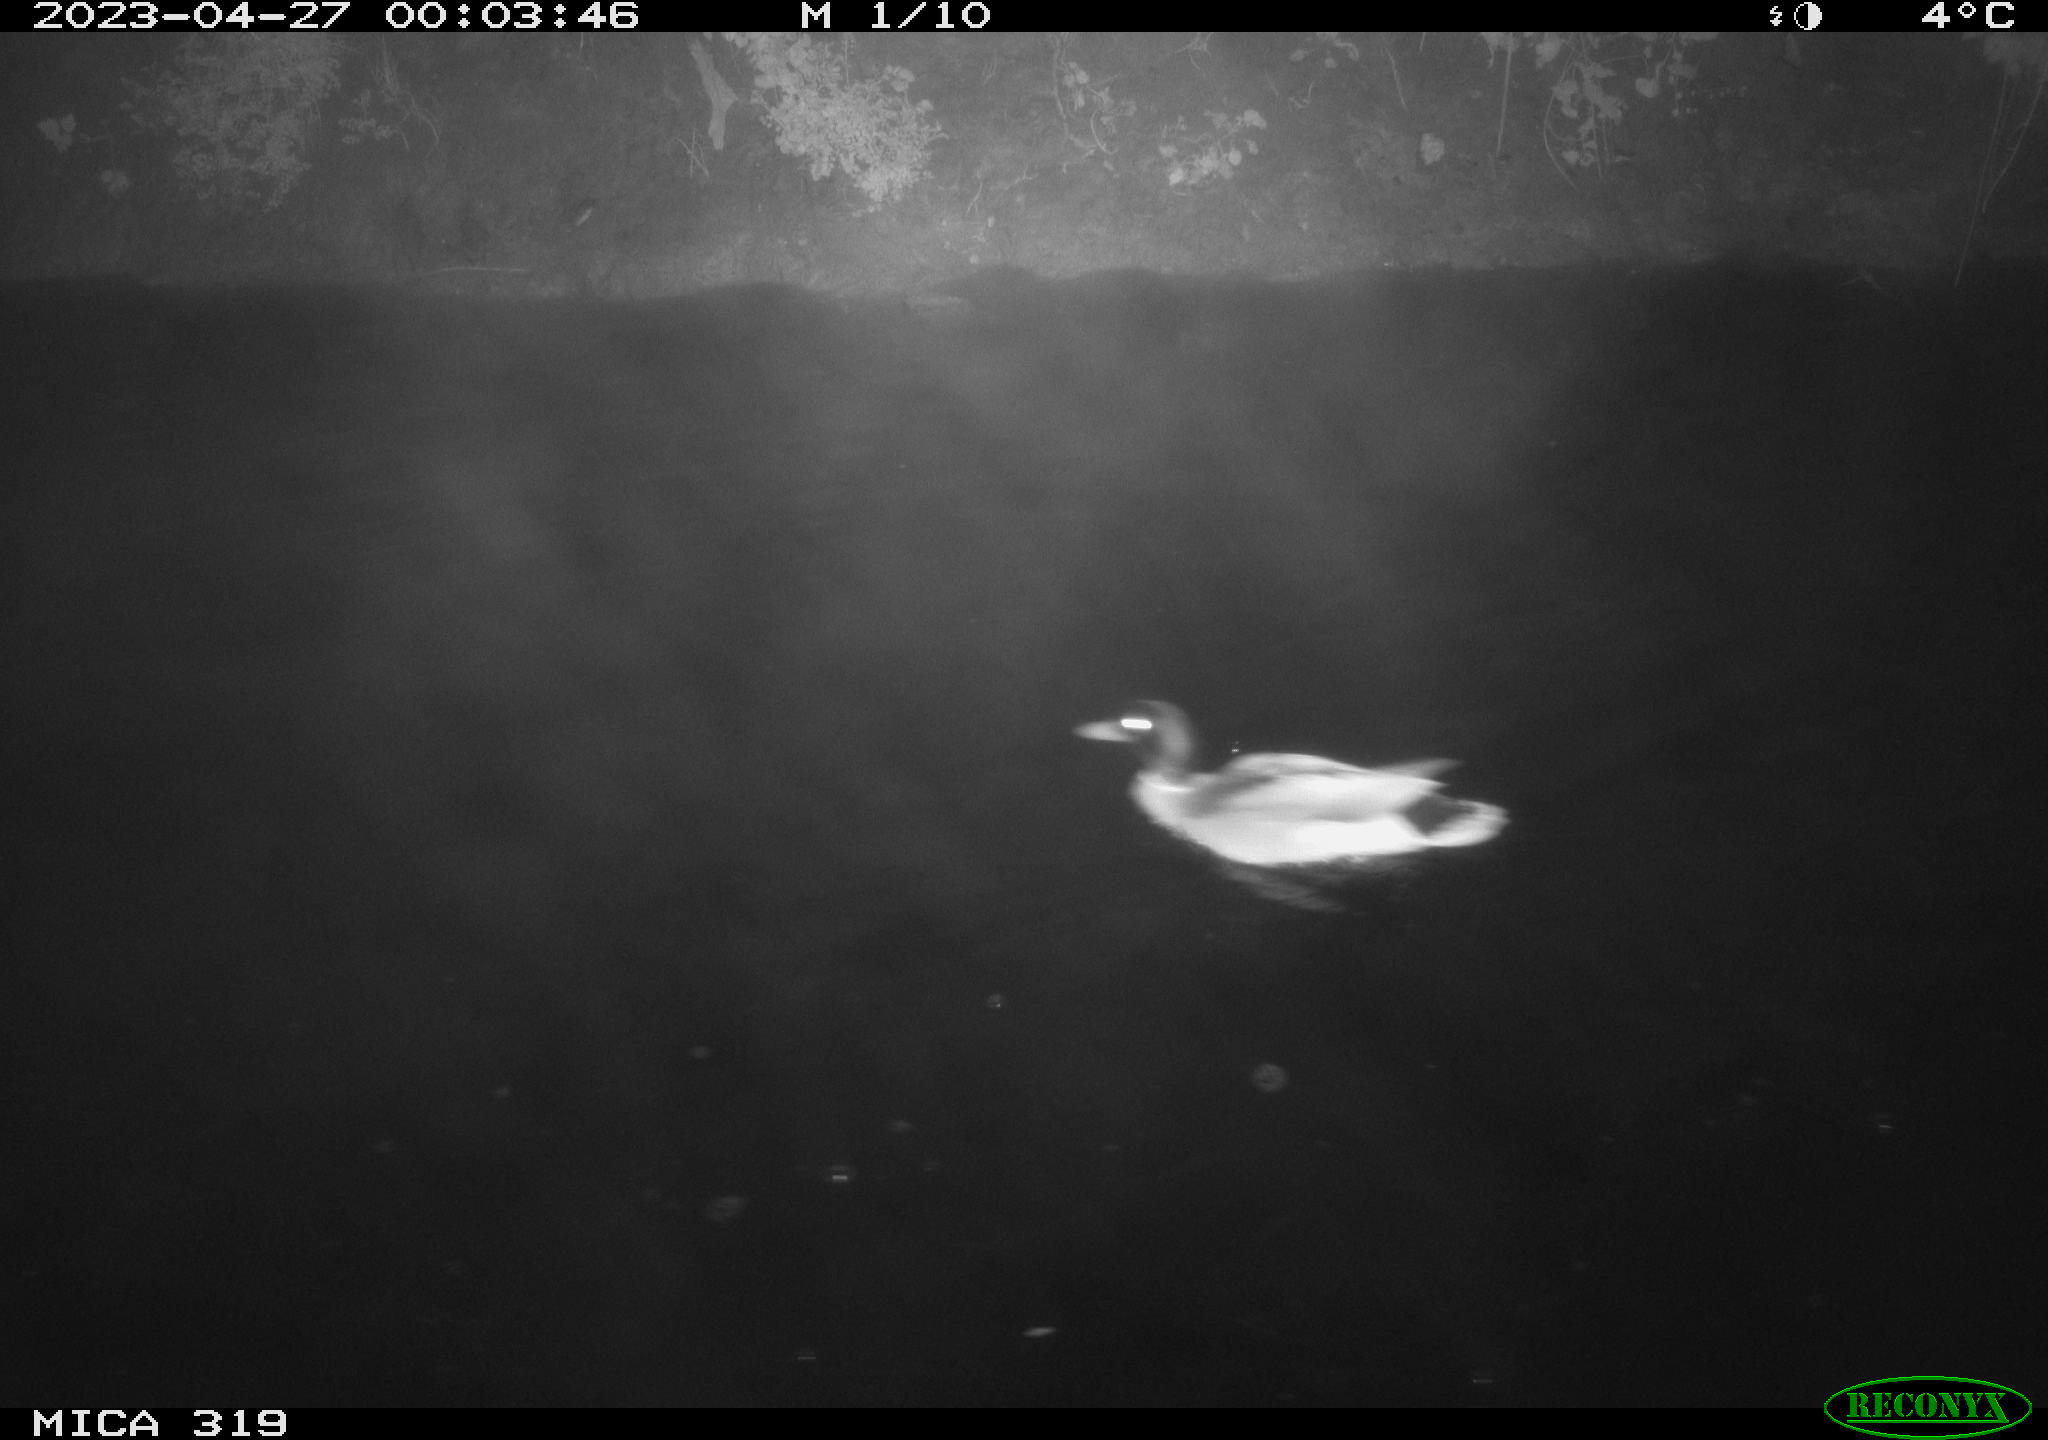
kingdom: Animalia
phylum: Chordata
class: Aves
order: Anseriformes
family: Anatidae
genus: Anas
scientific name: Anas
